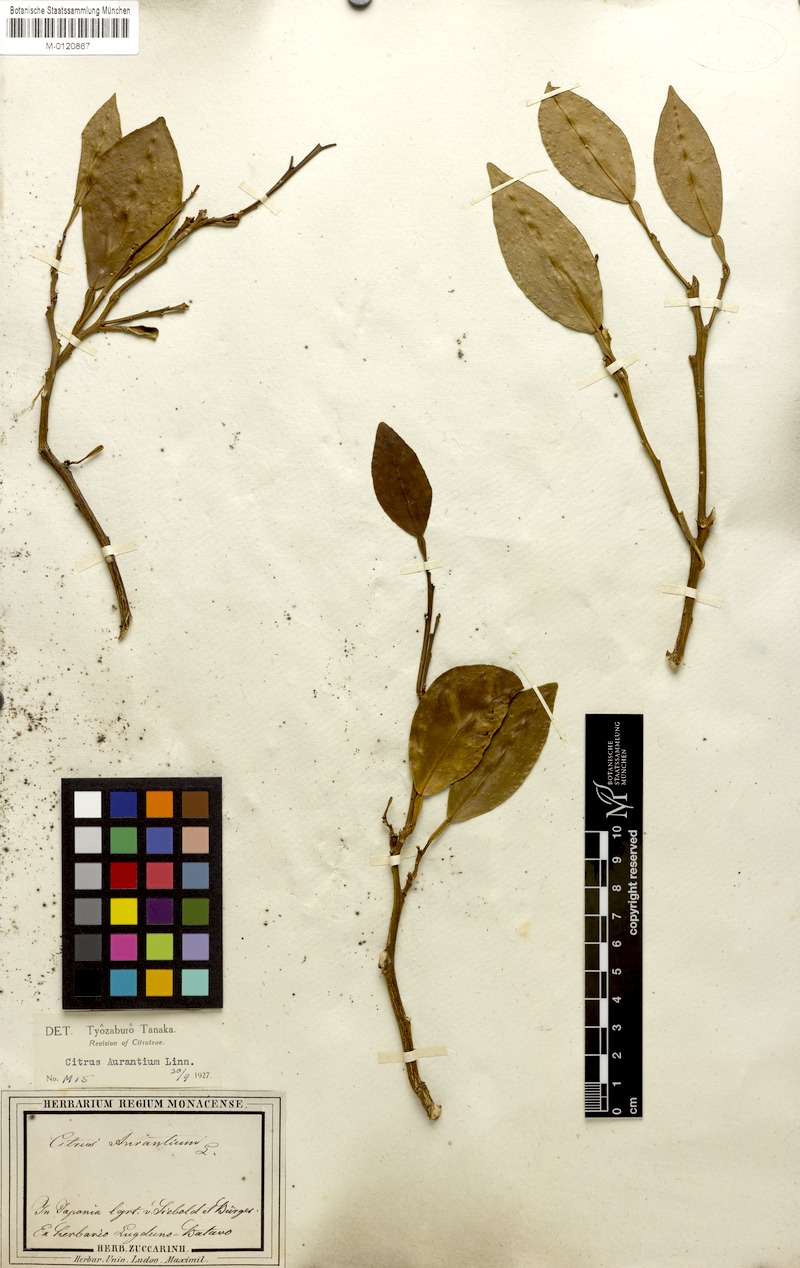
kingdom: Plantae
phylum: Tracheophyta
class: Magnoliopsida
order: Sapindales
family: Rutaceae
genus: Citrus
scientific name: Citrus aurantium
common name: Sour orange
